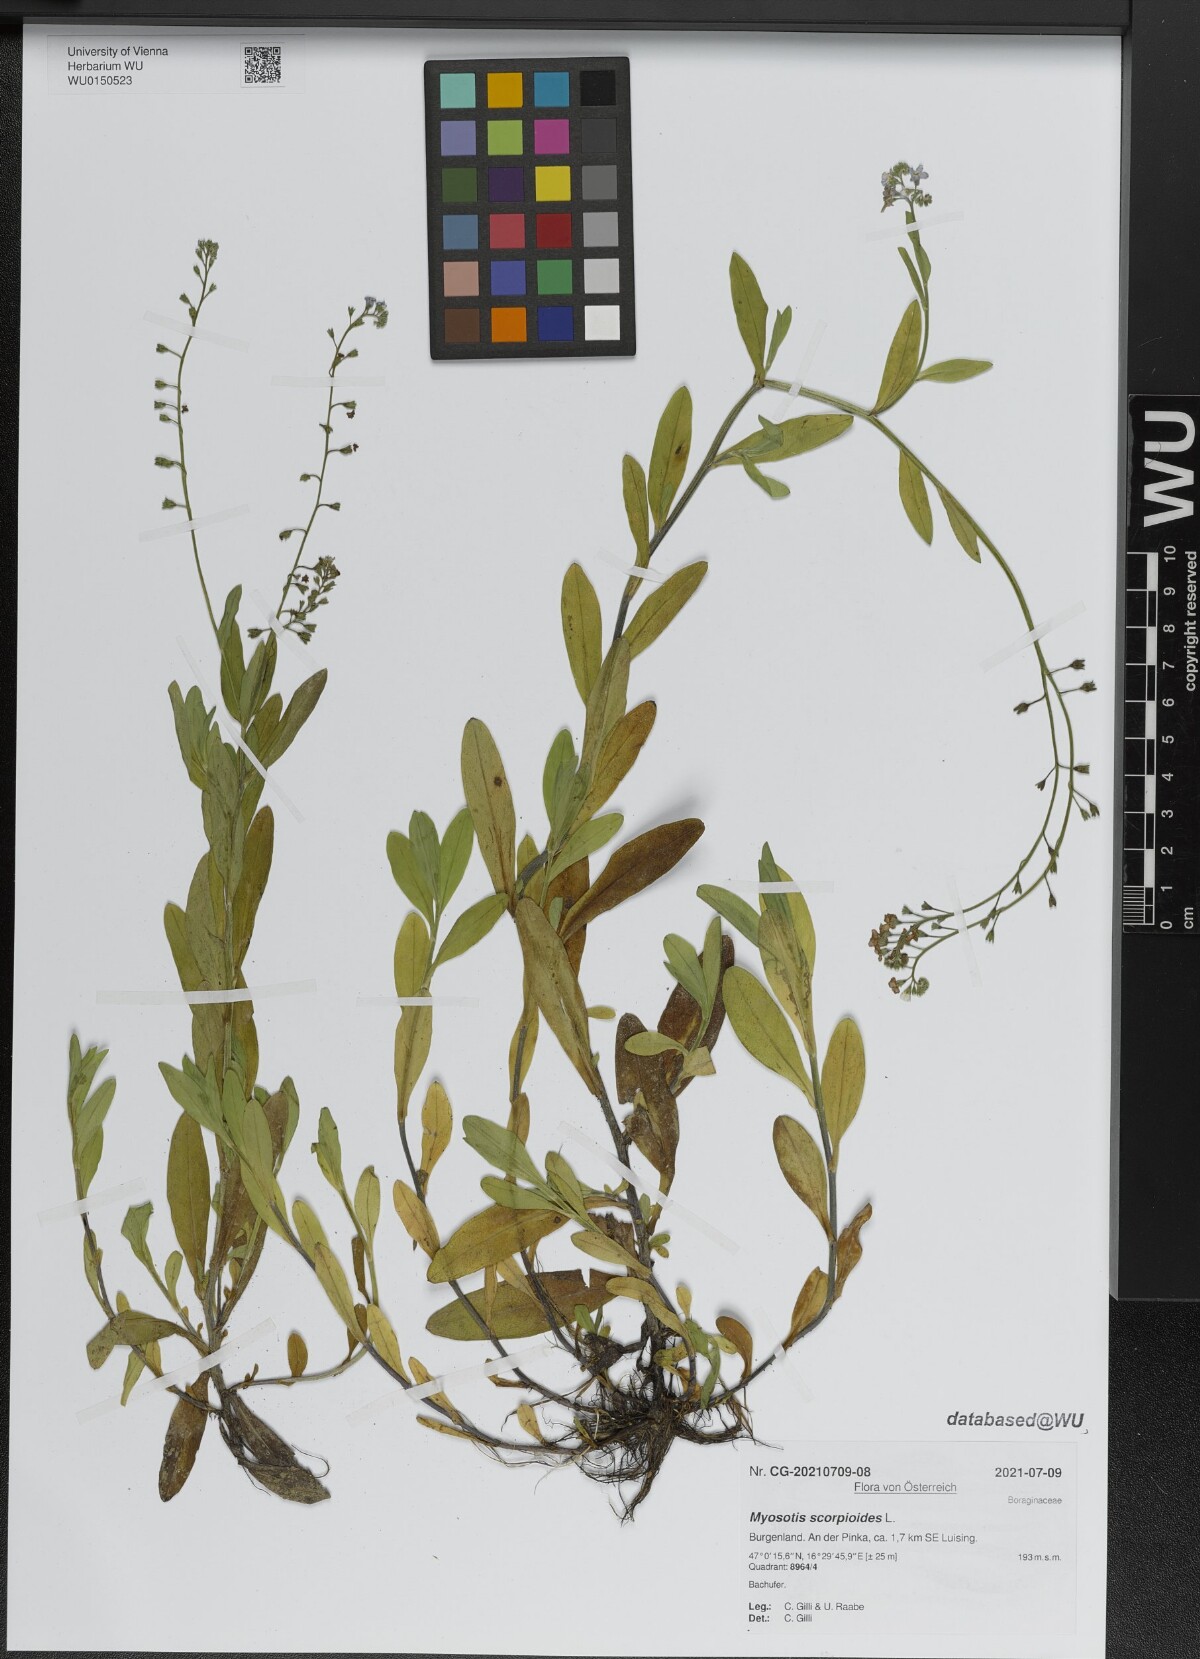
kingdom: Plantae
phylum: Tracheophyta
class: Magnoliopsida
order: Boraginales
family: Boraginaceae
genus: Myosotis
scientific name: Myosotis scorpioides
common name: Water forget-me-not
